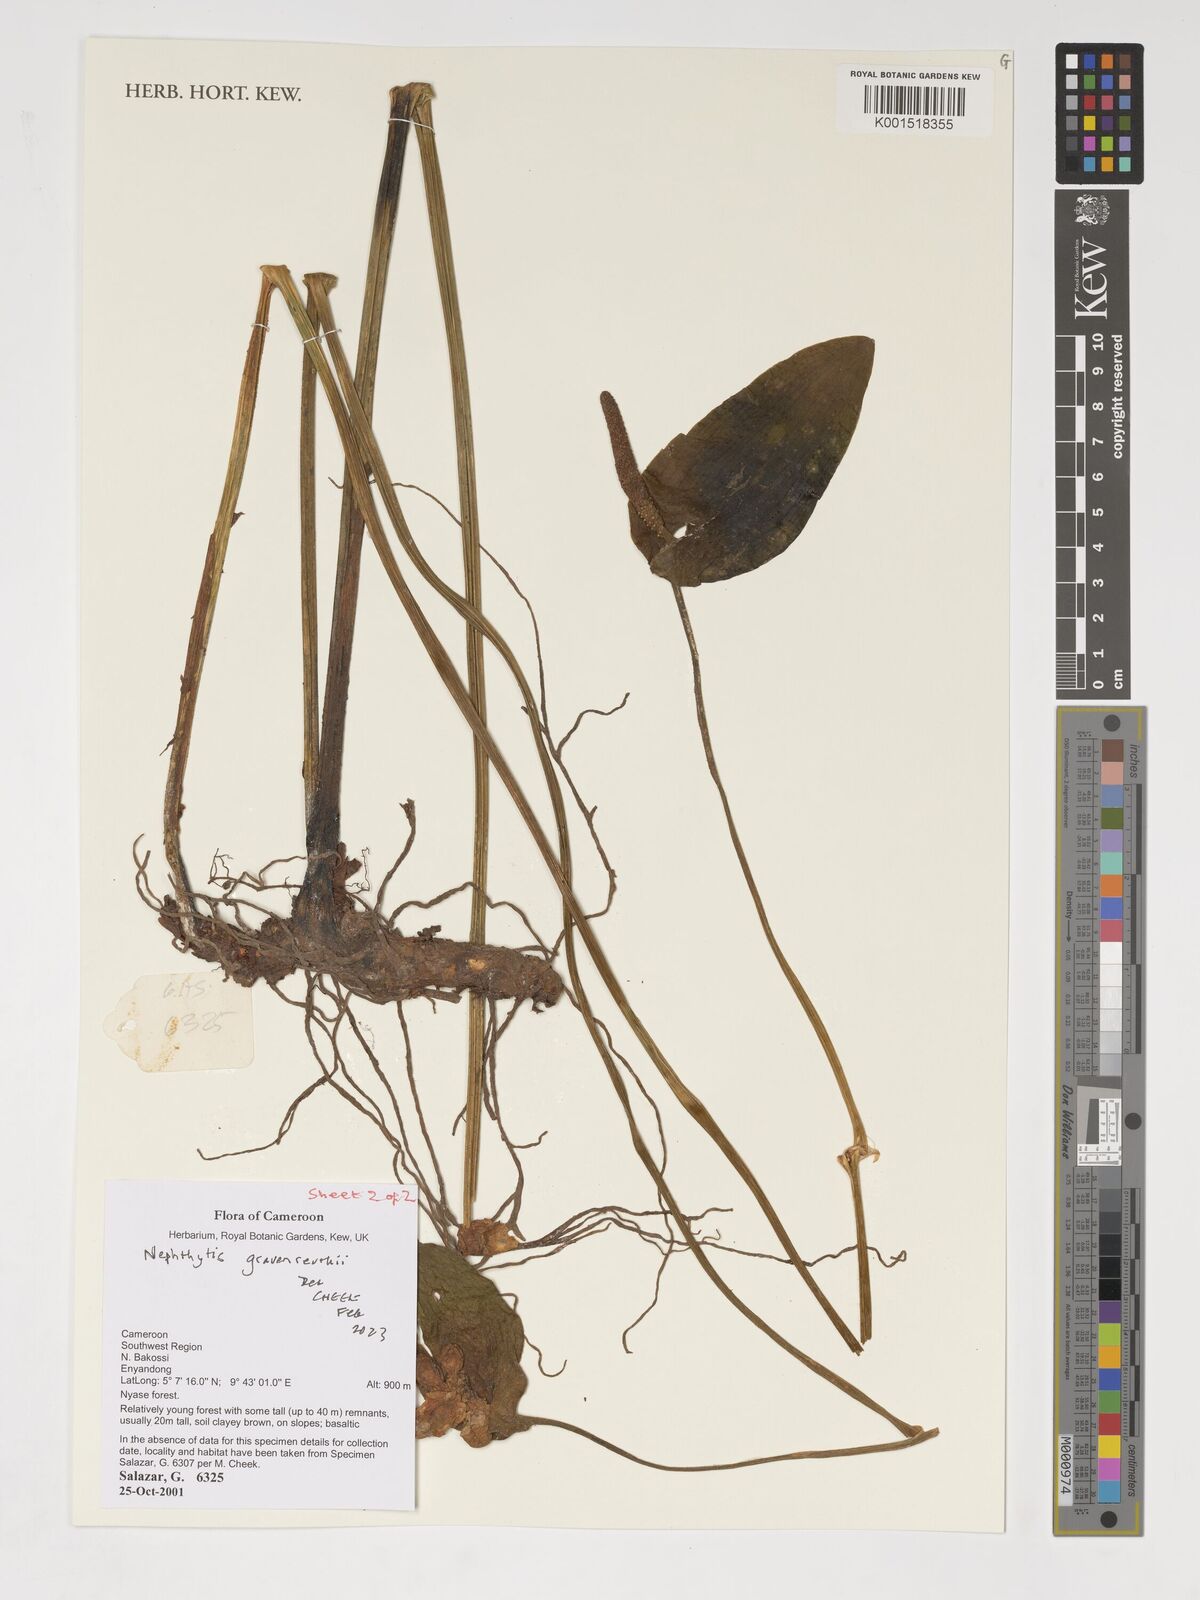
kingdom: Plantae
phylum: Tracheophyta
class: Liliopsida
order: Alismatales
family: Araceae
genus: Nephthytis
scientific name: Nephthytis poissonii
